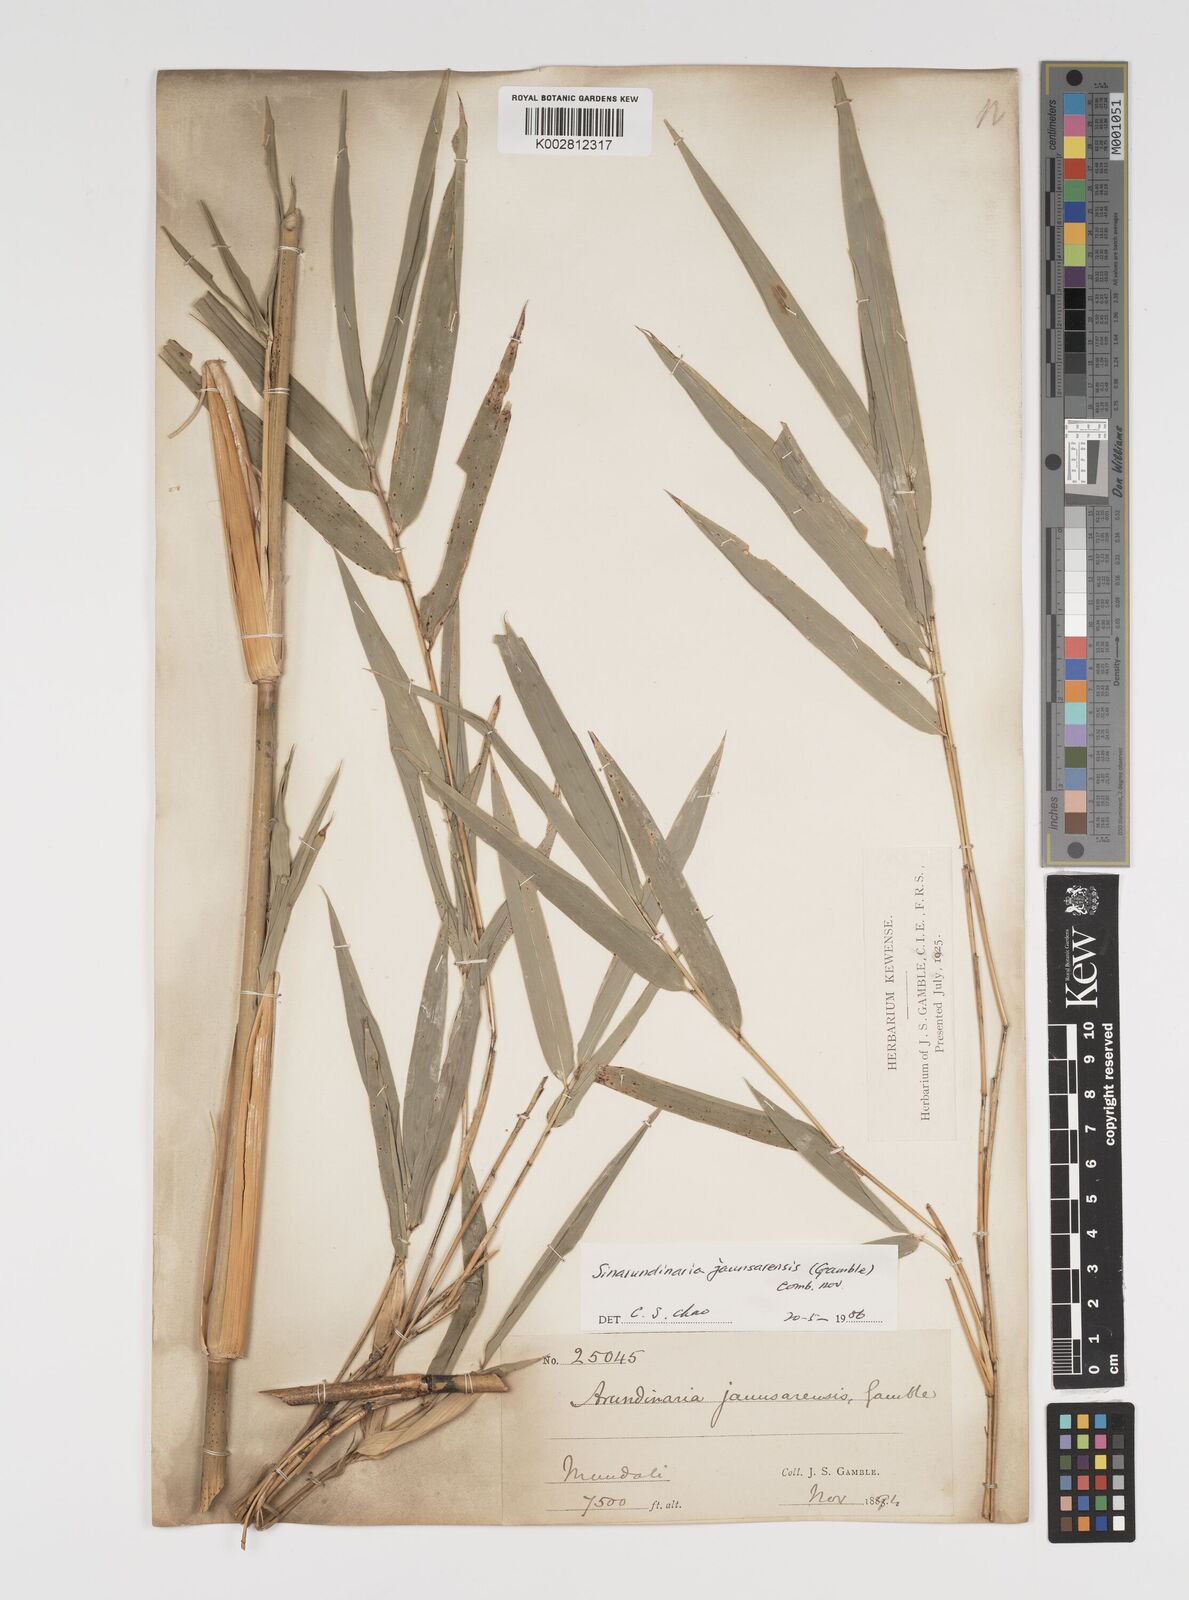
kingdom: Plantae
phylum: Tracheophyta
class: Liliopsida
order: Poales
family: Poaceae
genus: Yushania
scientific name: Yushania anceps
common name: Indian fountain-bamboo
